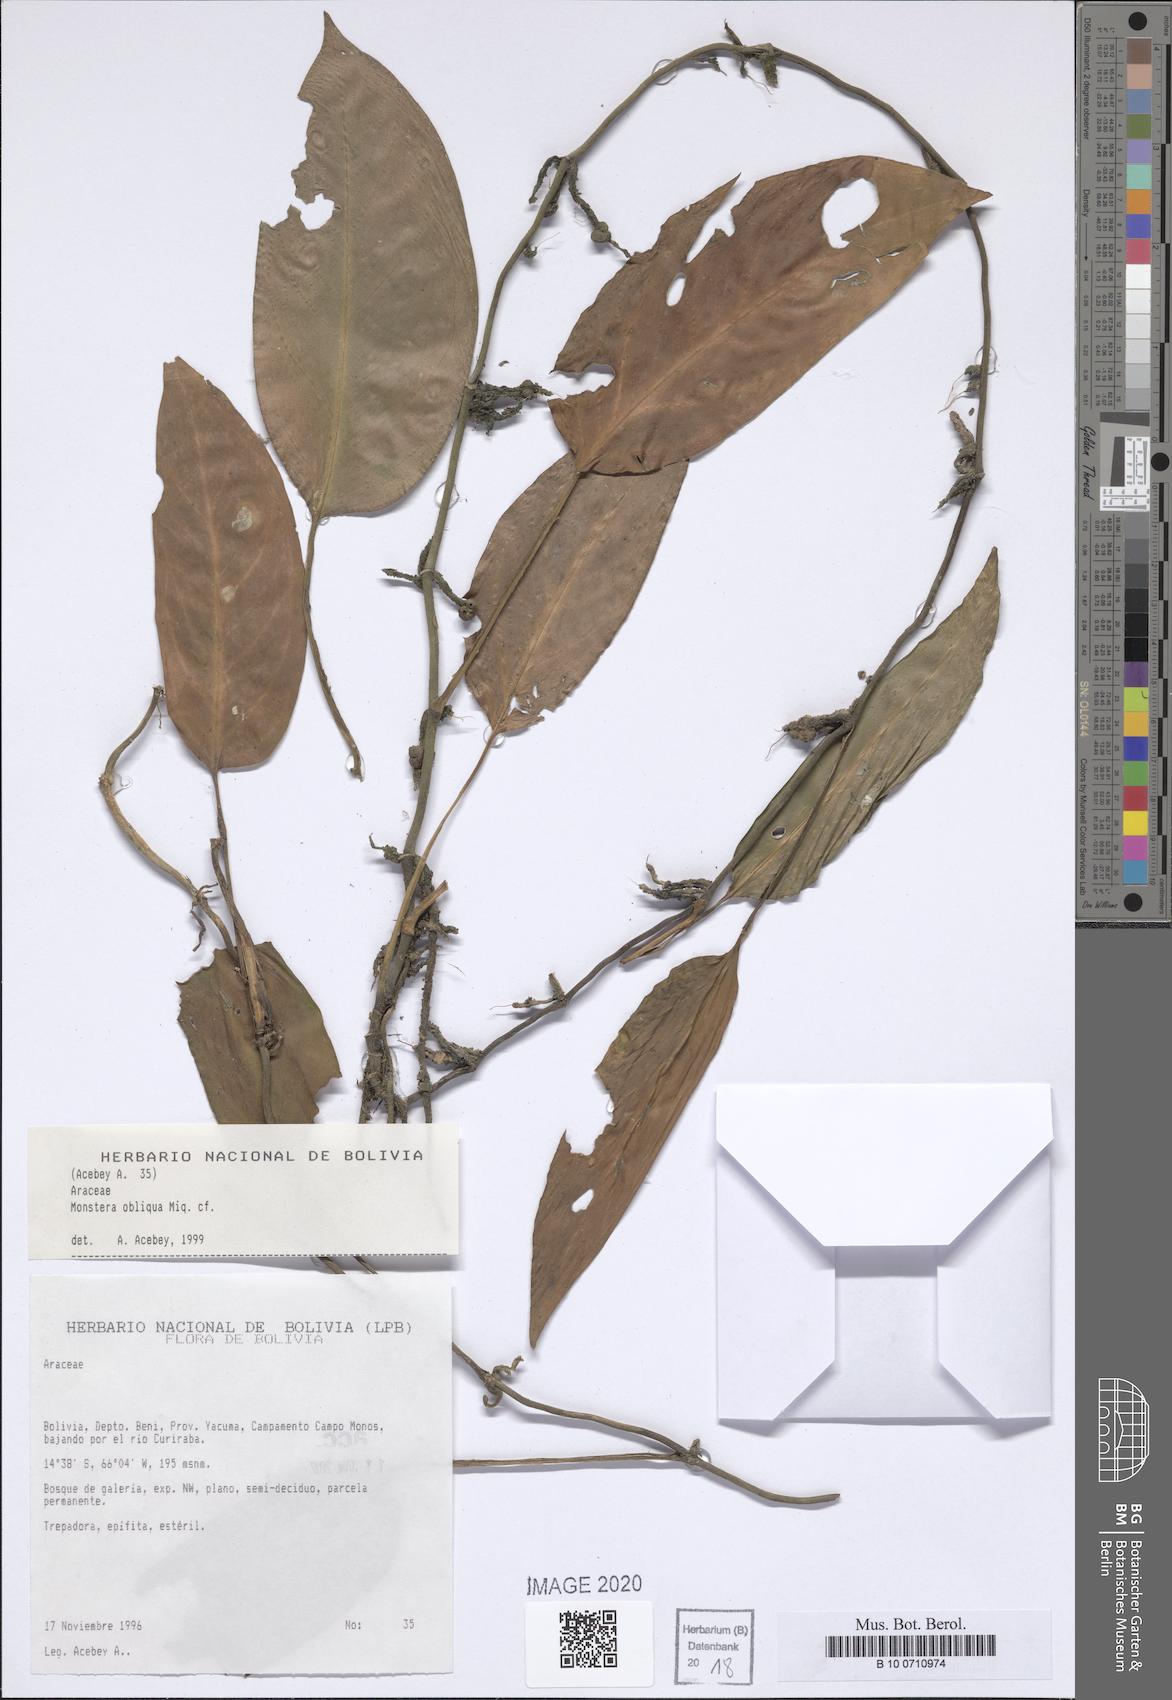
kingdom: Plantae
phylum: Tracheophyta
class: Liliopsida
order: Alismatales
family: Araceae
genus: Monstera
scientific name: Monstera obliqua
